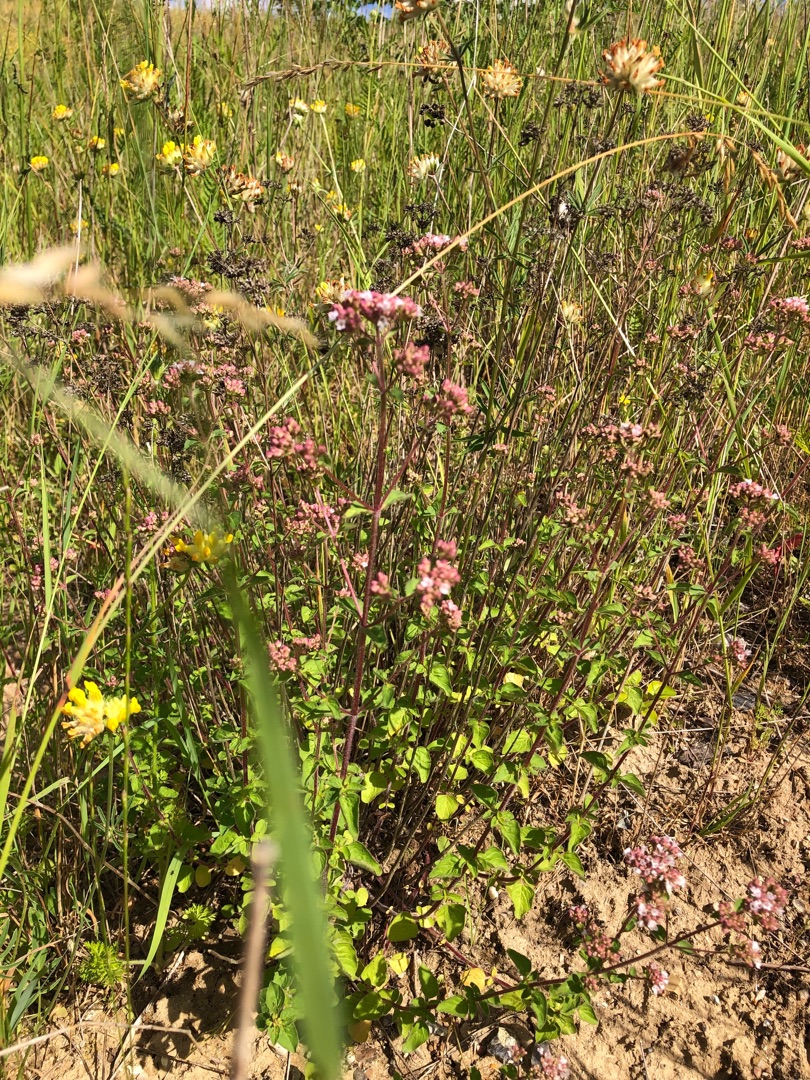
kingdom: Plantae
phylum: Tracheophyta
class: Magnoliopsida
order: Lamiales
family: Lamiaceae
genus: Origanum
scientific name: Origanum vulgare
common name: Merian
